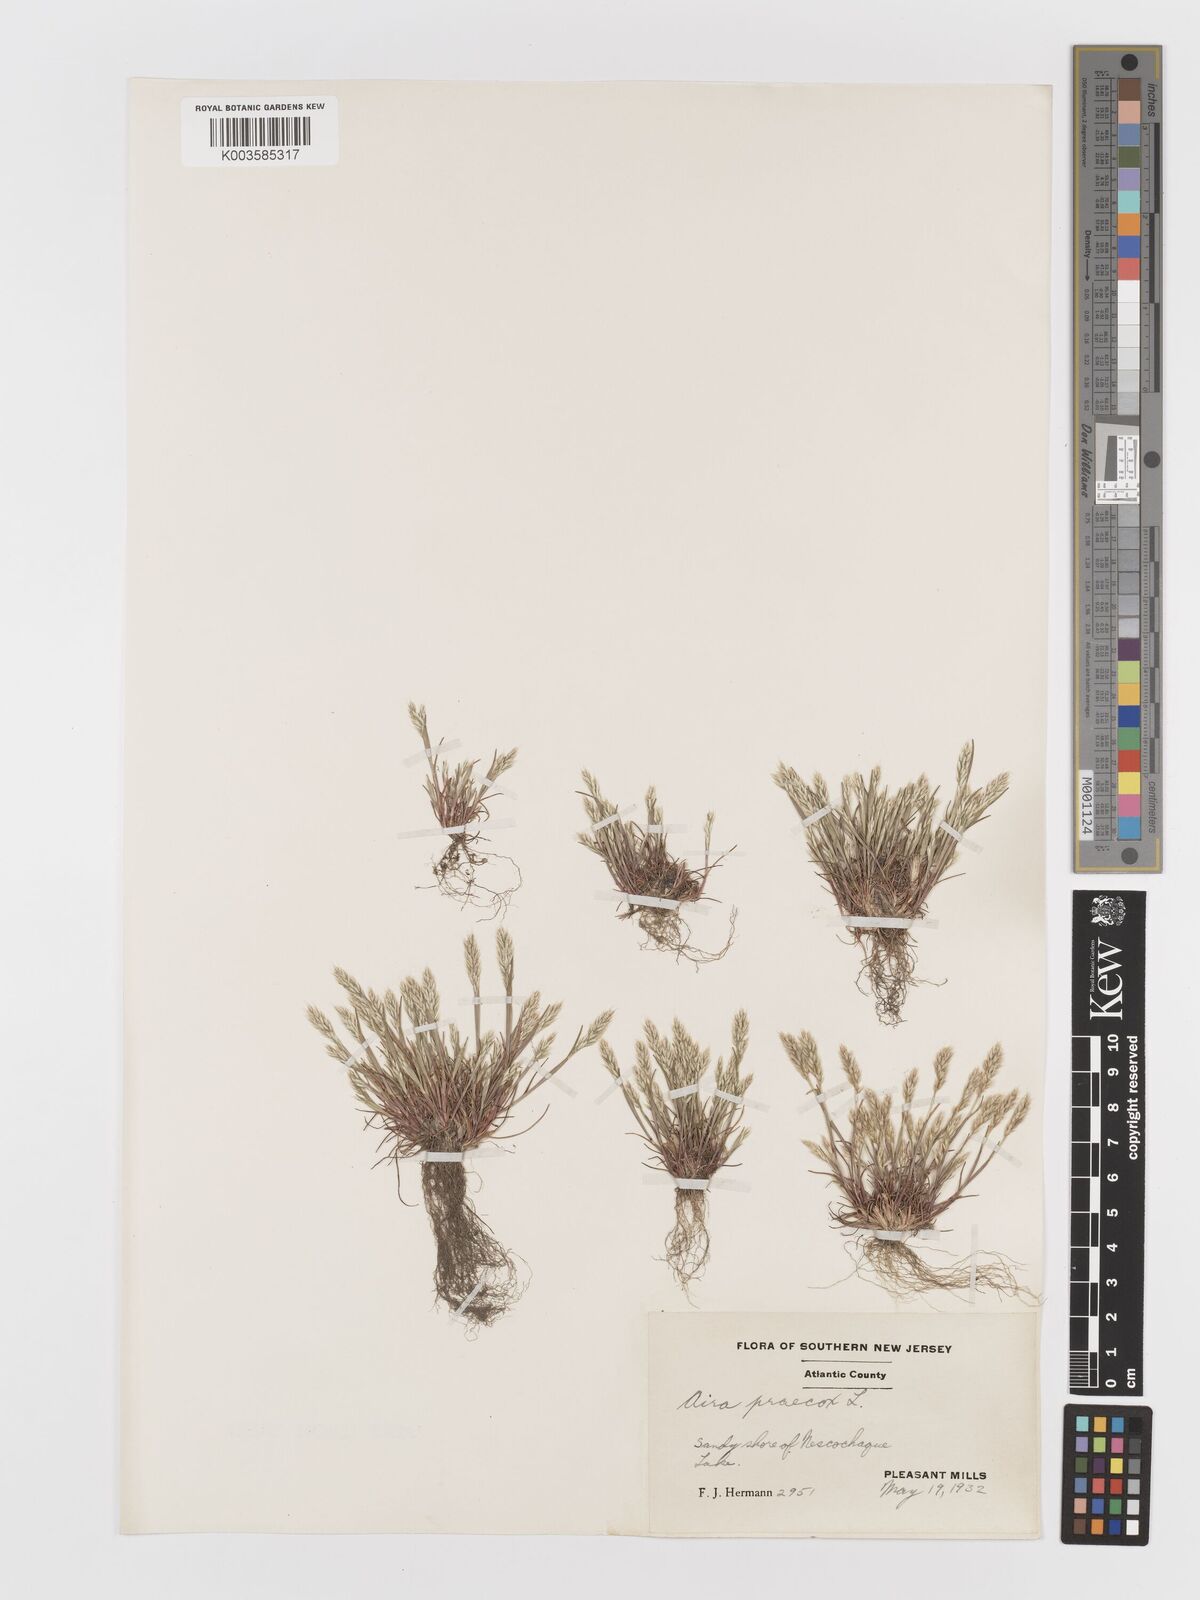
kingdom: Plantae
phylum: Tracheophyta
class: Liliopsida
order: Poales
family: Poaceae
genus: Aira
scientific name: Aira praecox
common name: Early hair-grass
